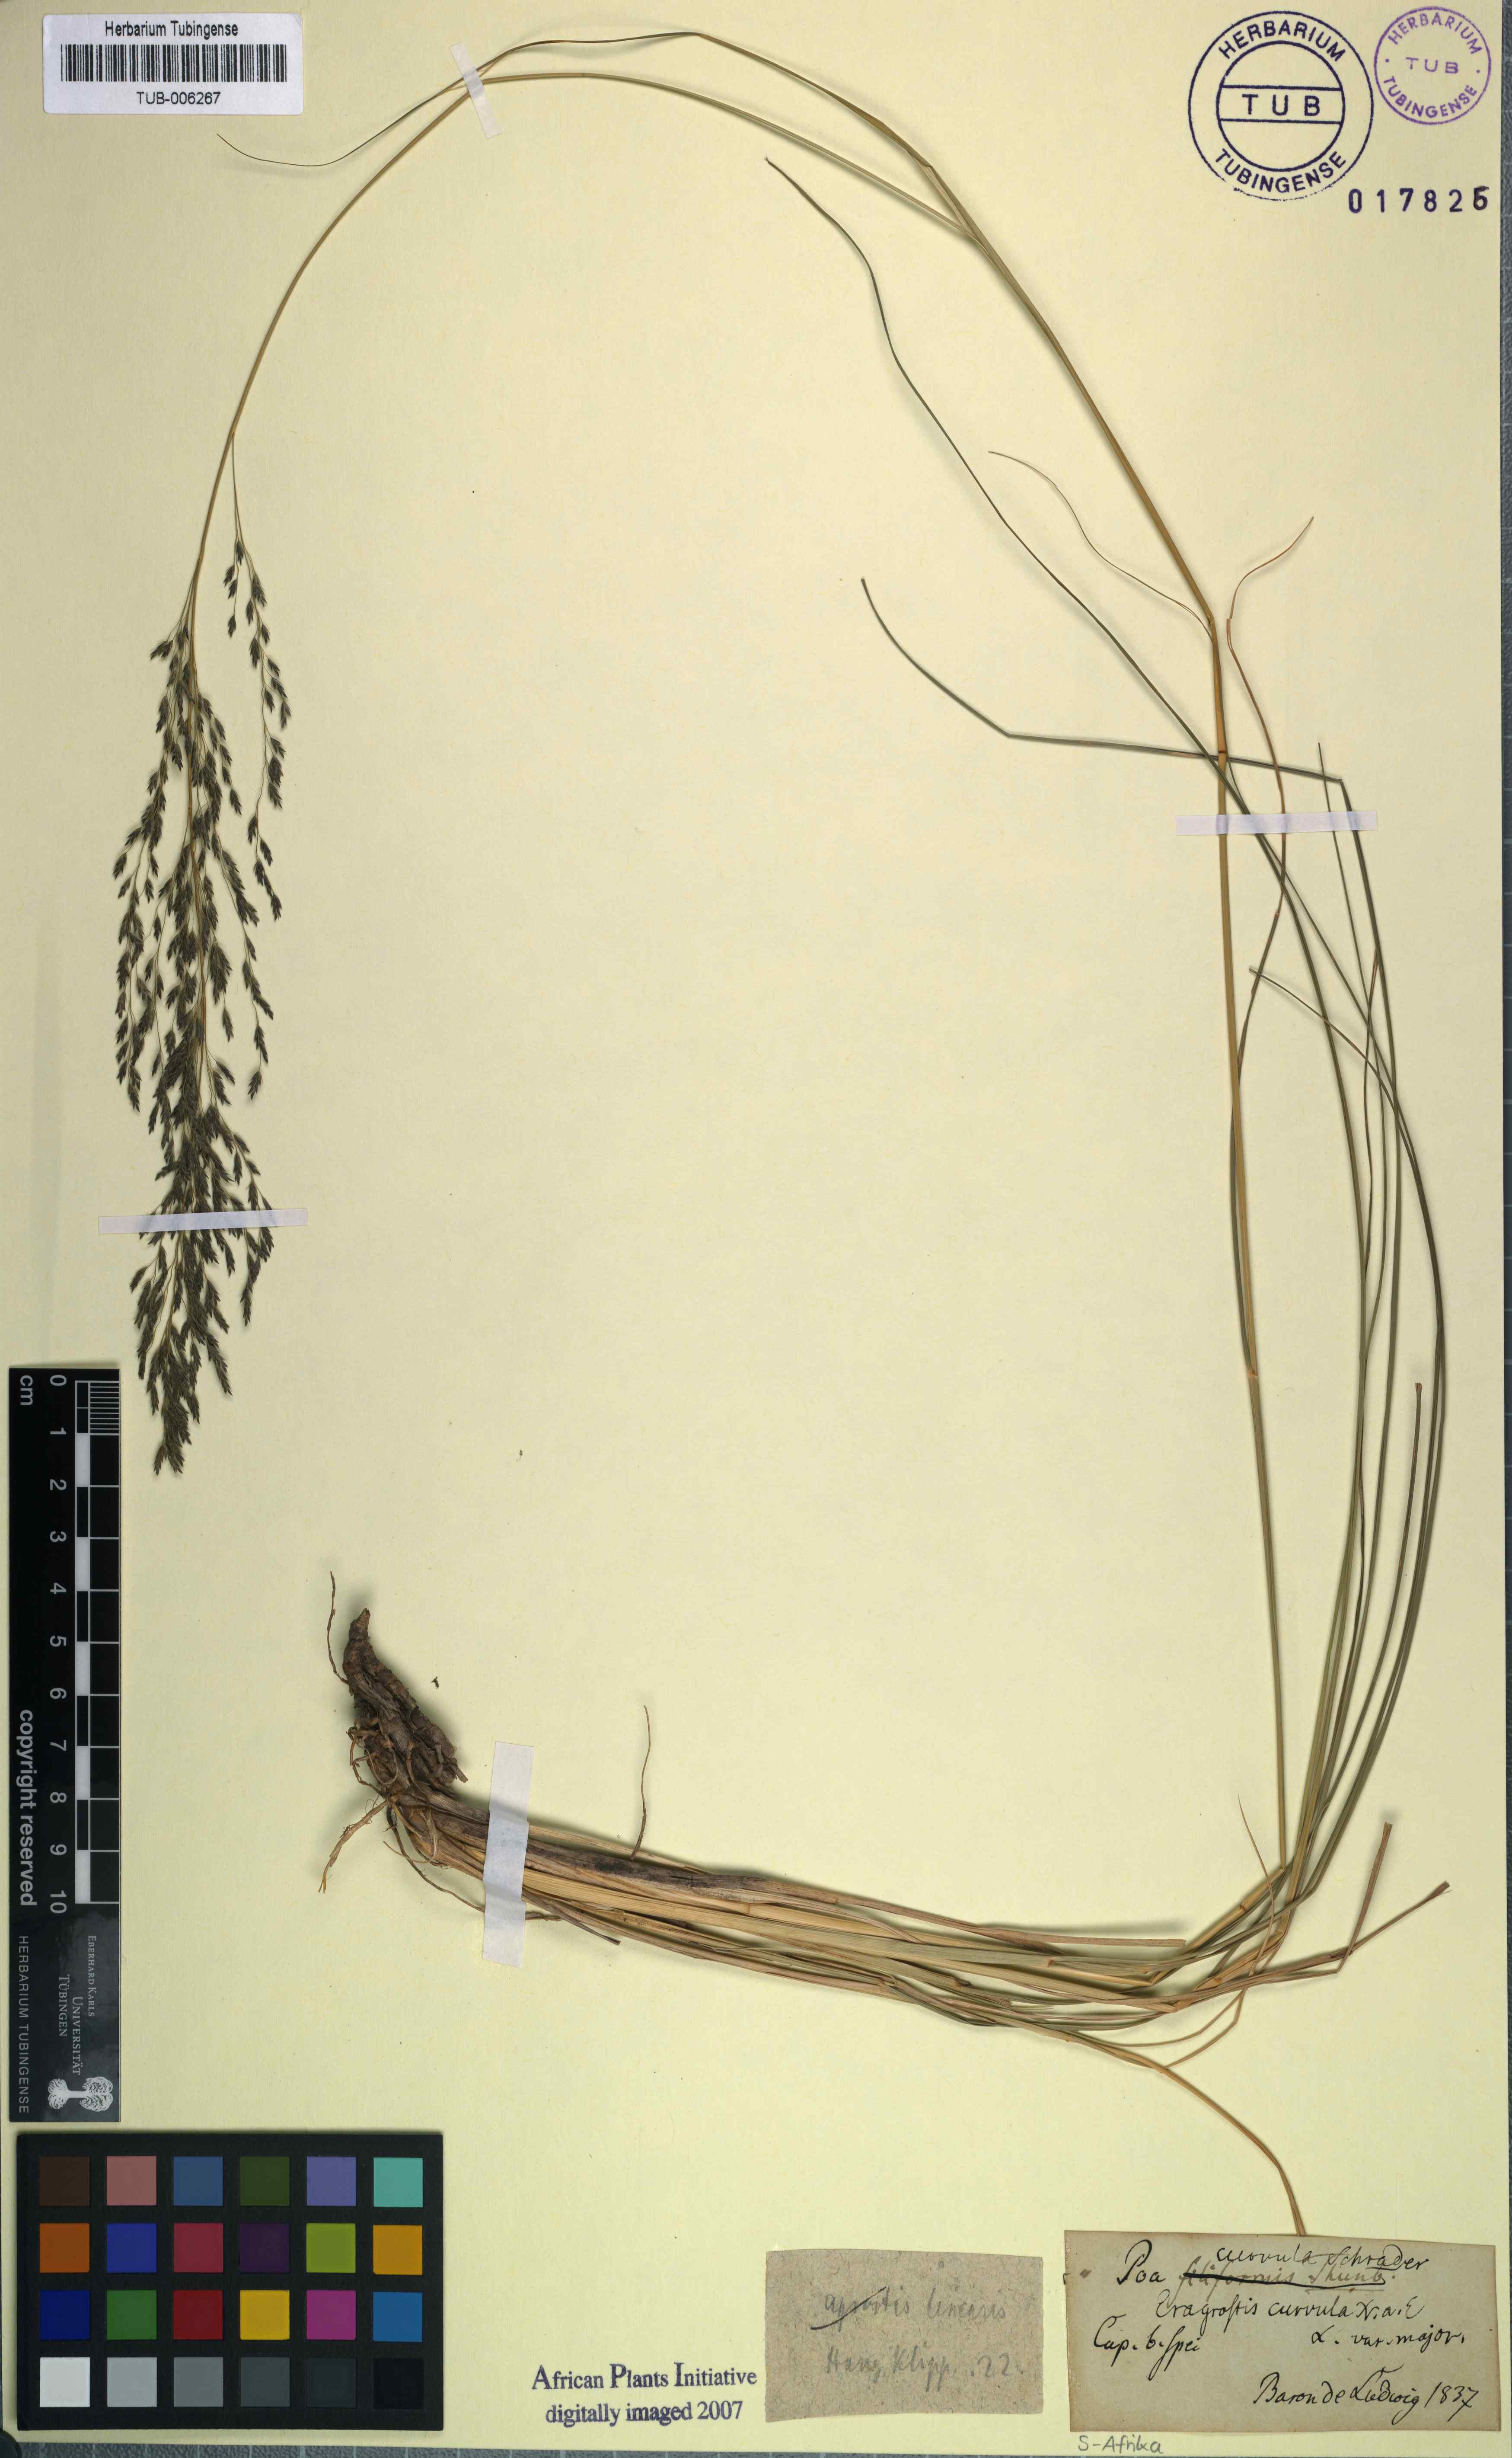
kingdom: Plantae
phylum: Tracheophyta
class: Liliopsida
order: Poales
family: Poaceae
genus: Eragrostis
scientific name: Eragrostis curvula
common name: African love-grass
